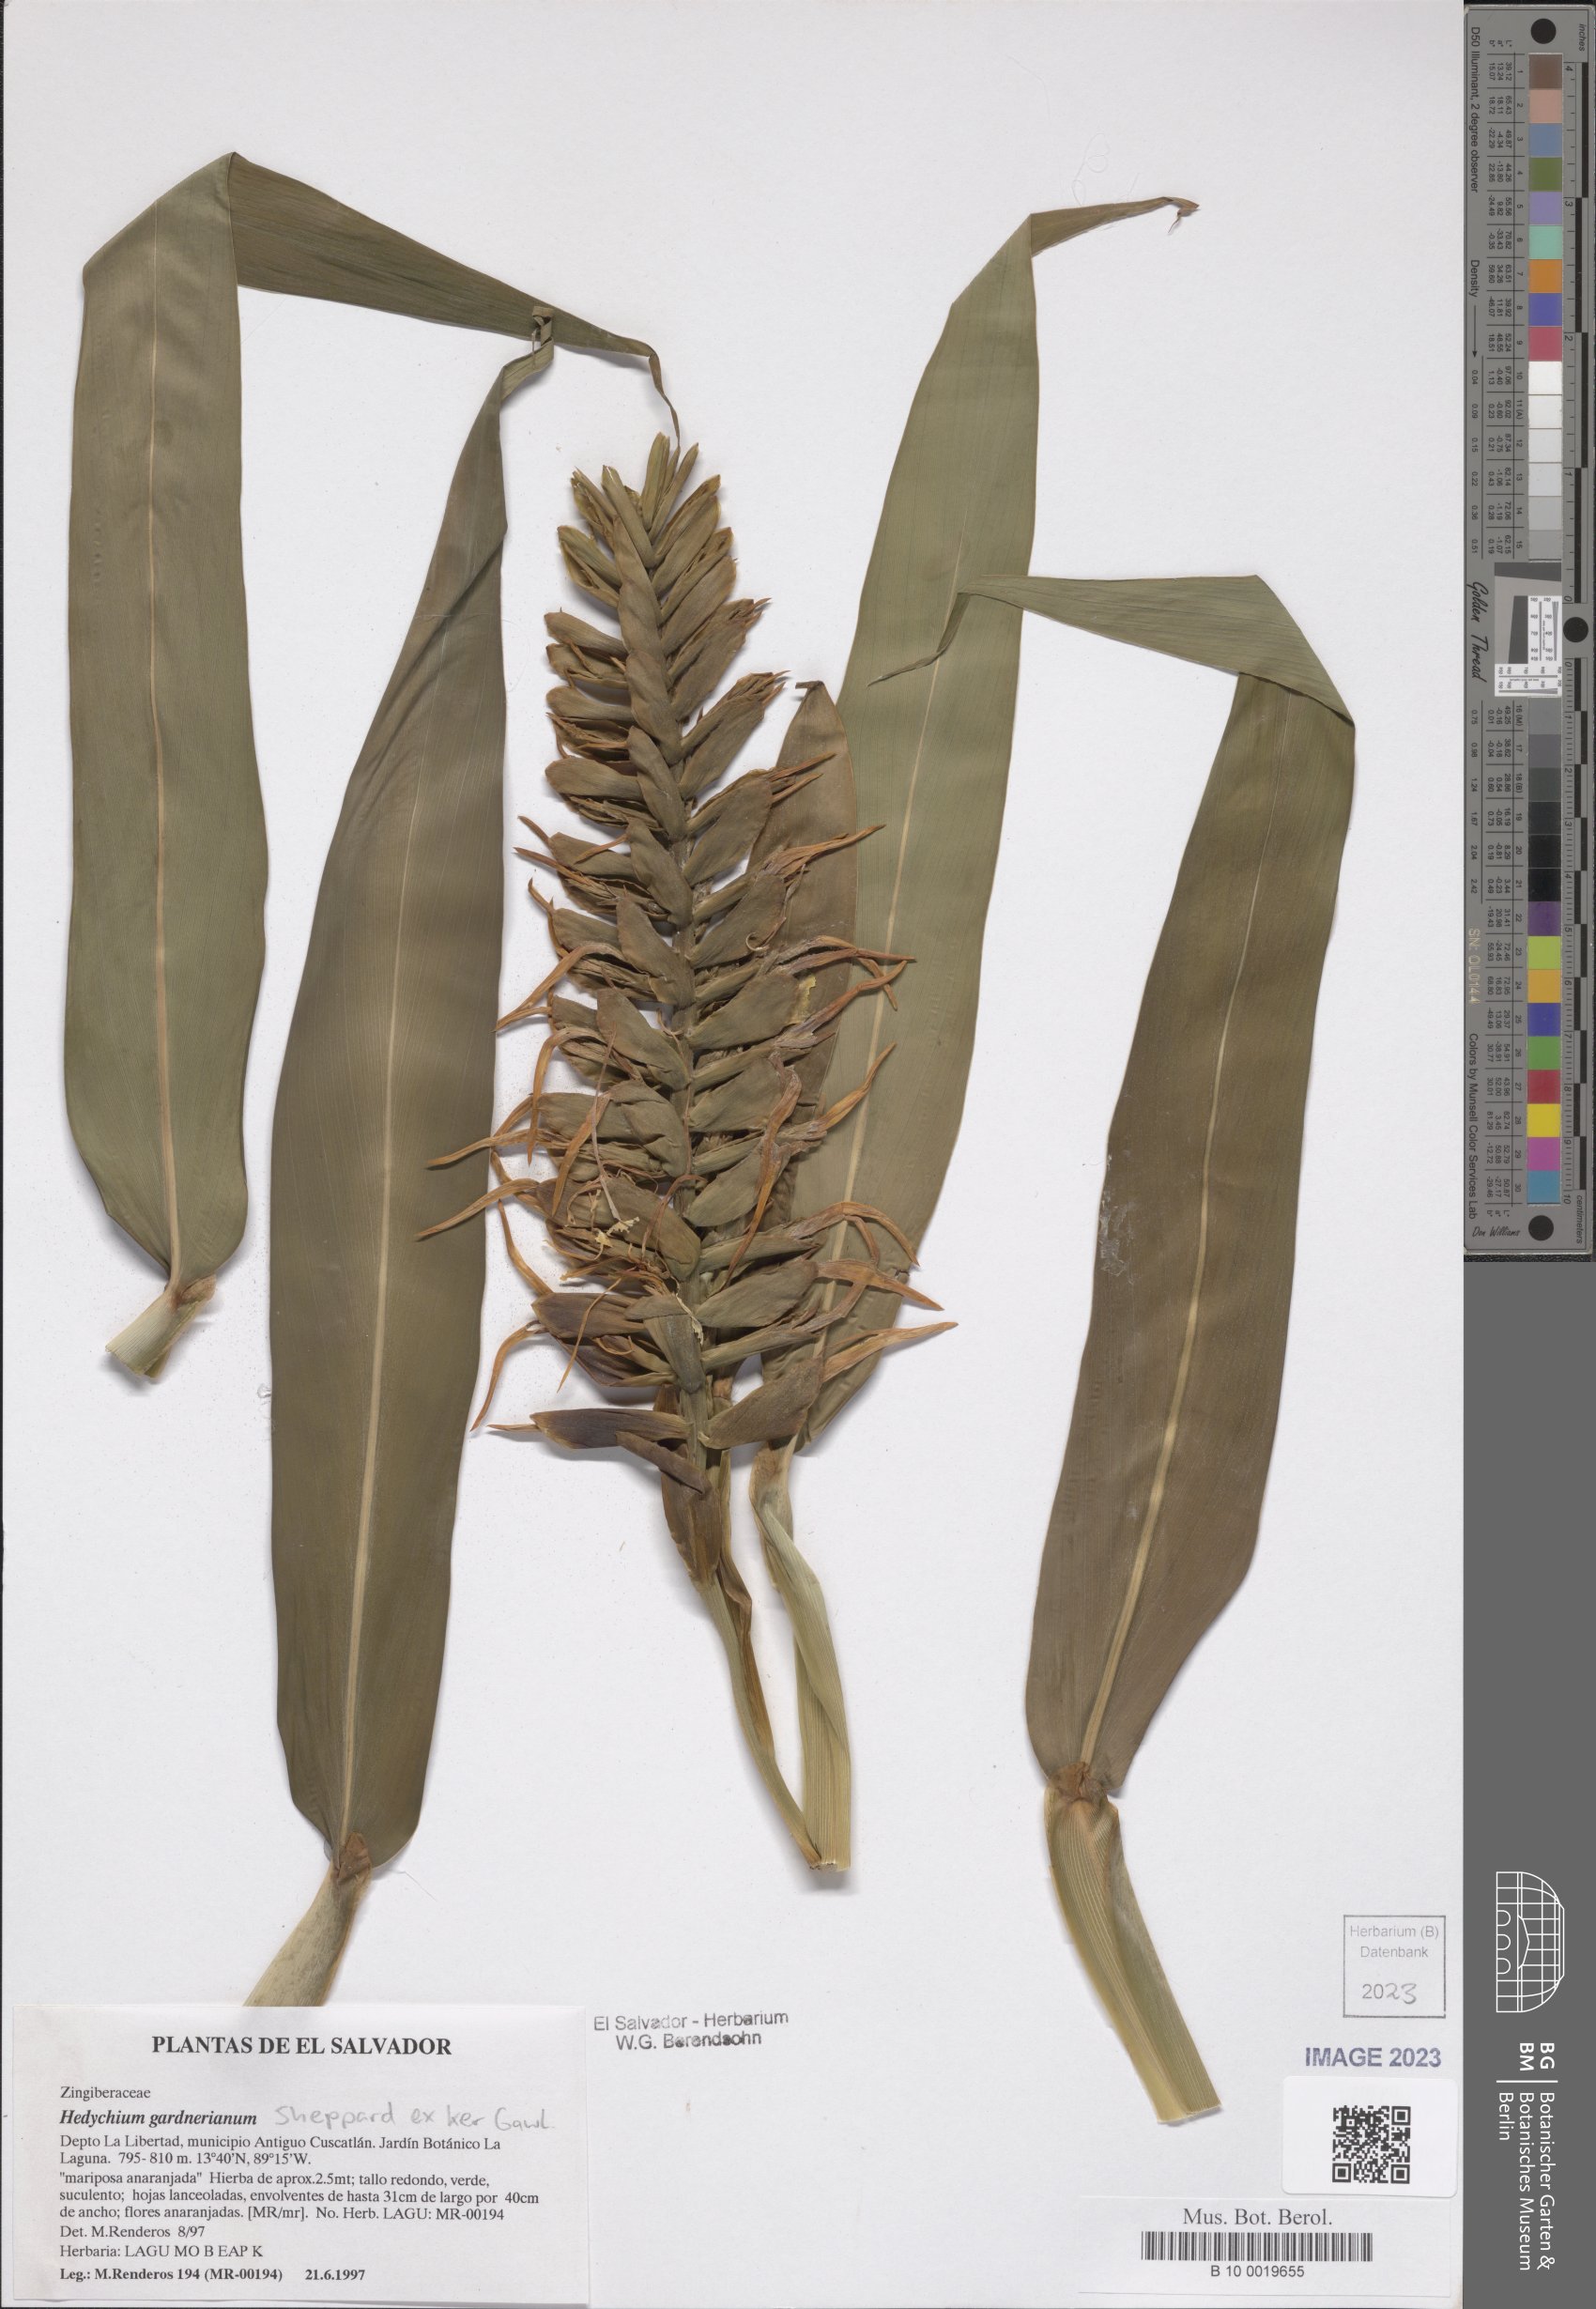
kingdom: Plantae
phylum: Tracheophyta
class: Liliopsida
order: Zingiberales
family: Zingiberaceae
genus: Hedychium
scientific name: Hedychium gardnerianum
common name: Himalayan ginger
